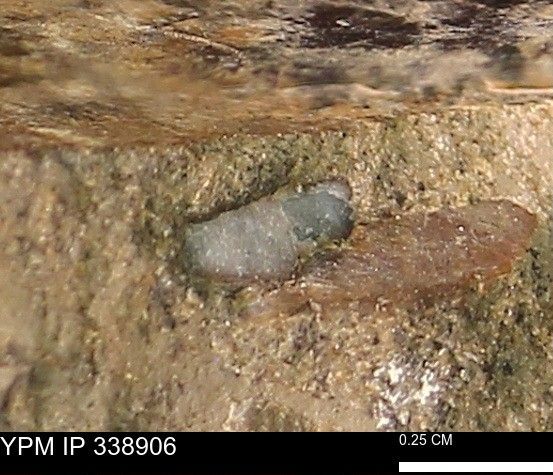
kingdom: Animalia
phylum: Mollusca
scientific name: Mollusca
